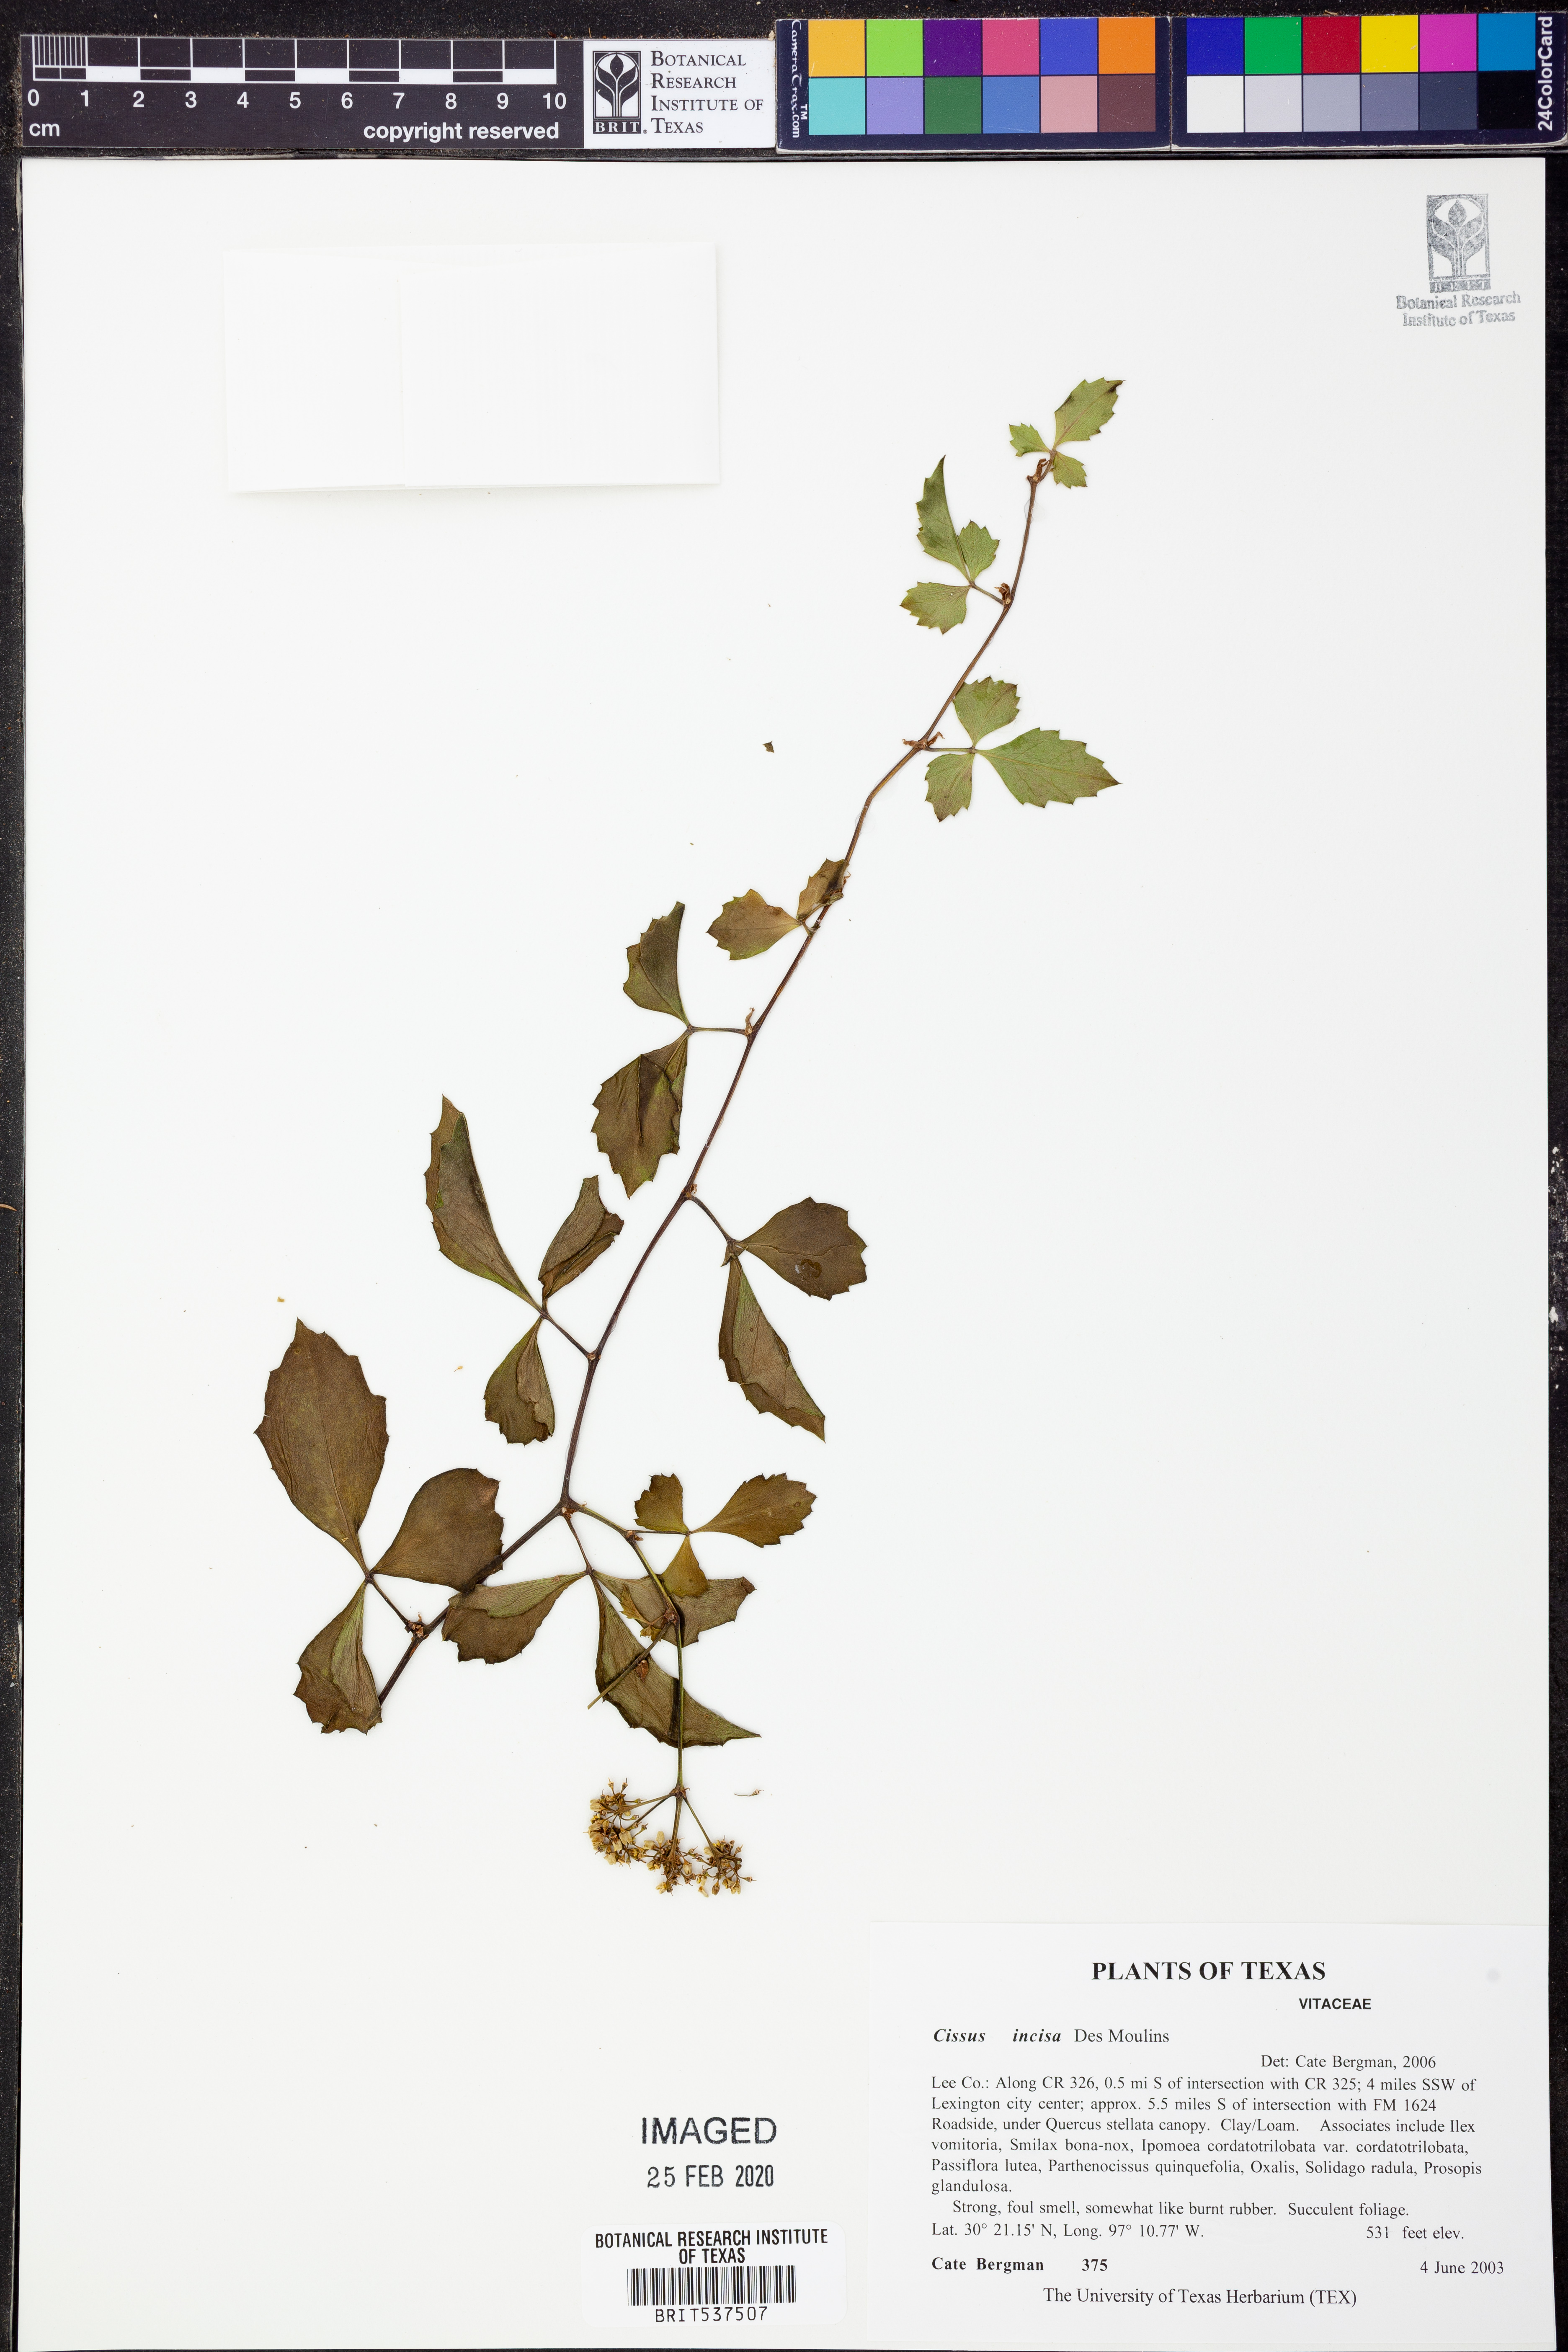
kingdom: Plantae
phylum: Tracheophyta
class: Magnoliopsida
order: Vitales
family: Vitaceae
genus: Cissus
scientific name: Cissus trifoliata
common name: Vine-sorrel
